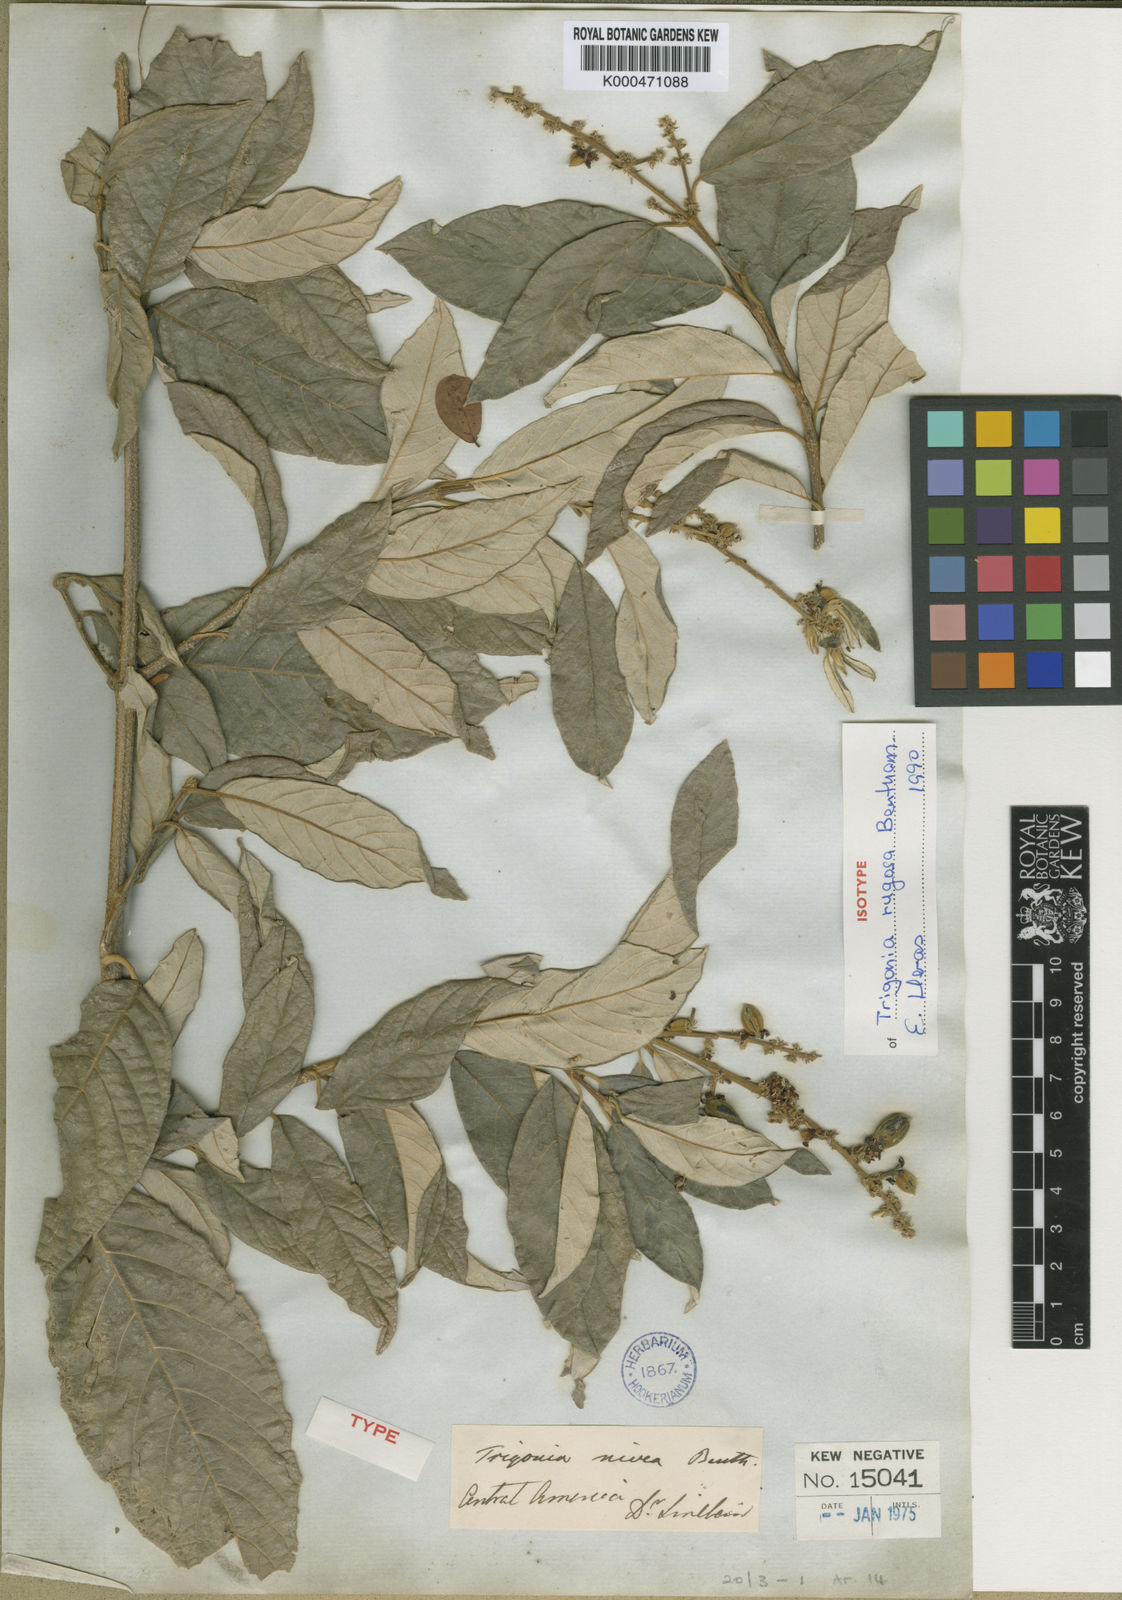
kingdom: Plantae
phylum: Tracheophyta
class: Magnoliopsida
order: Malpighiales
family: Trigoniaceae
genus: Trigonia
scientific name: Trigonia rugosa
